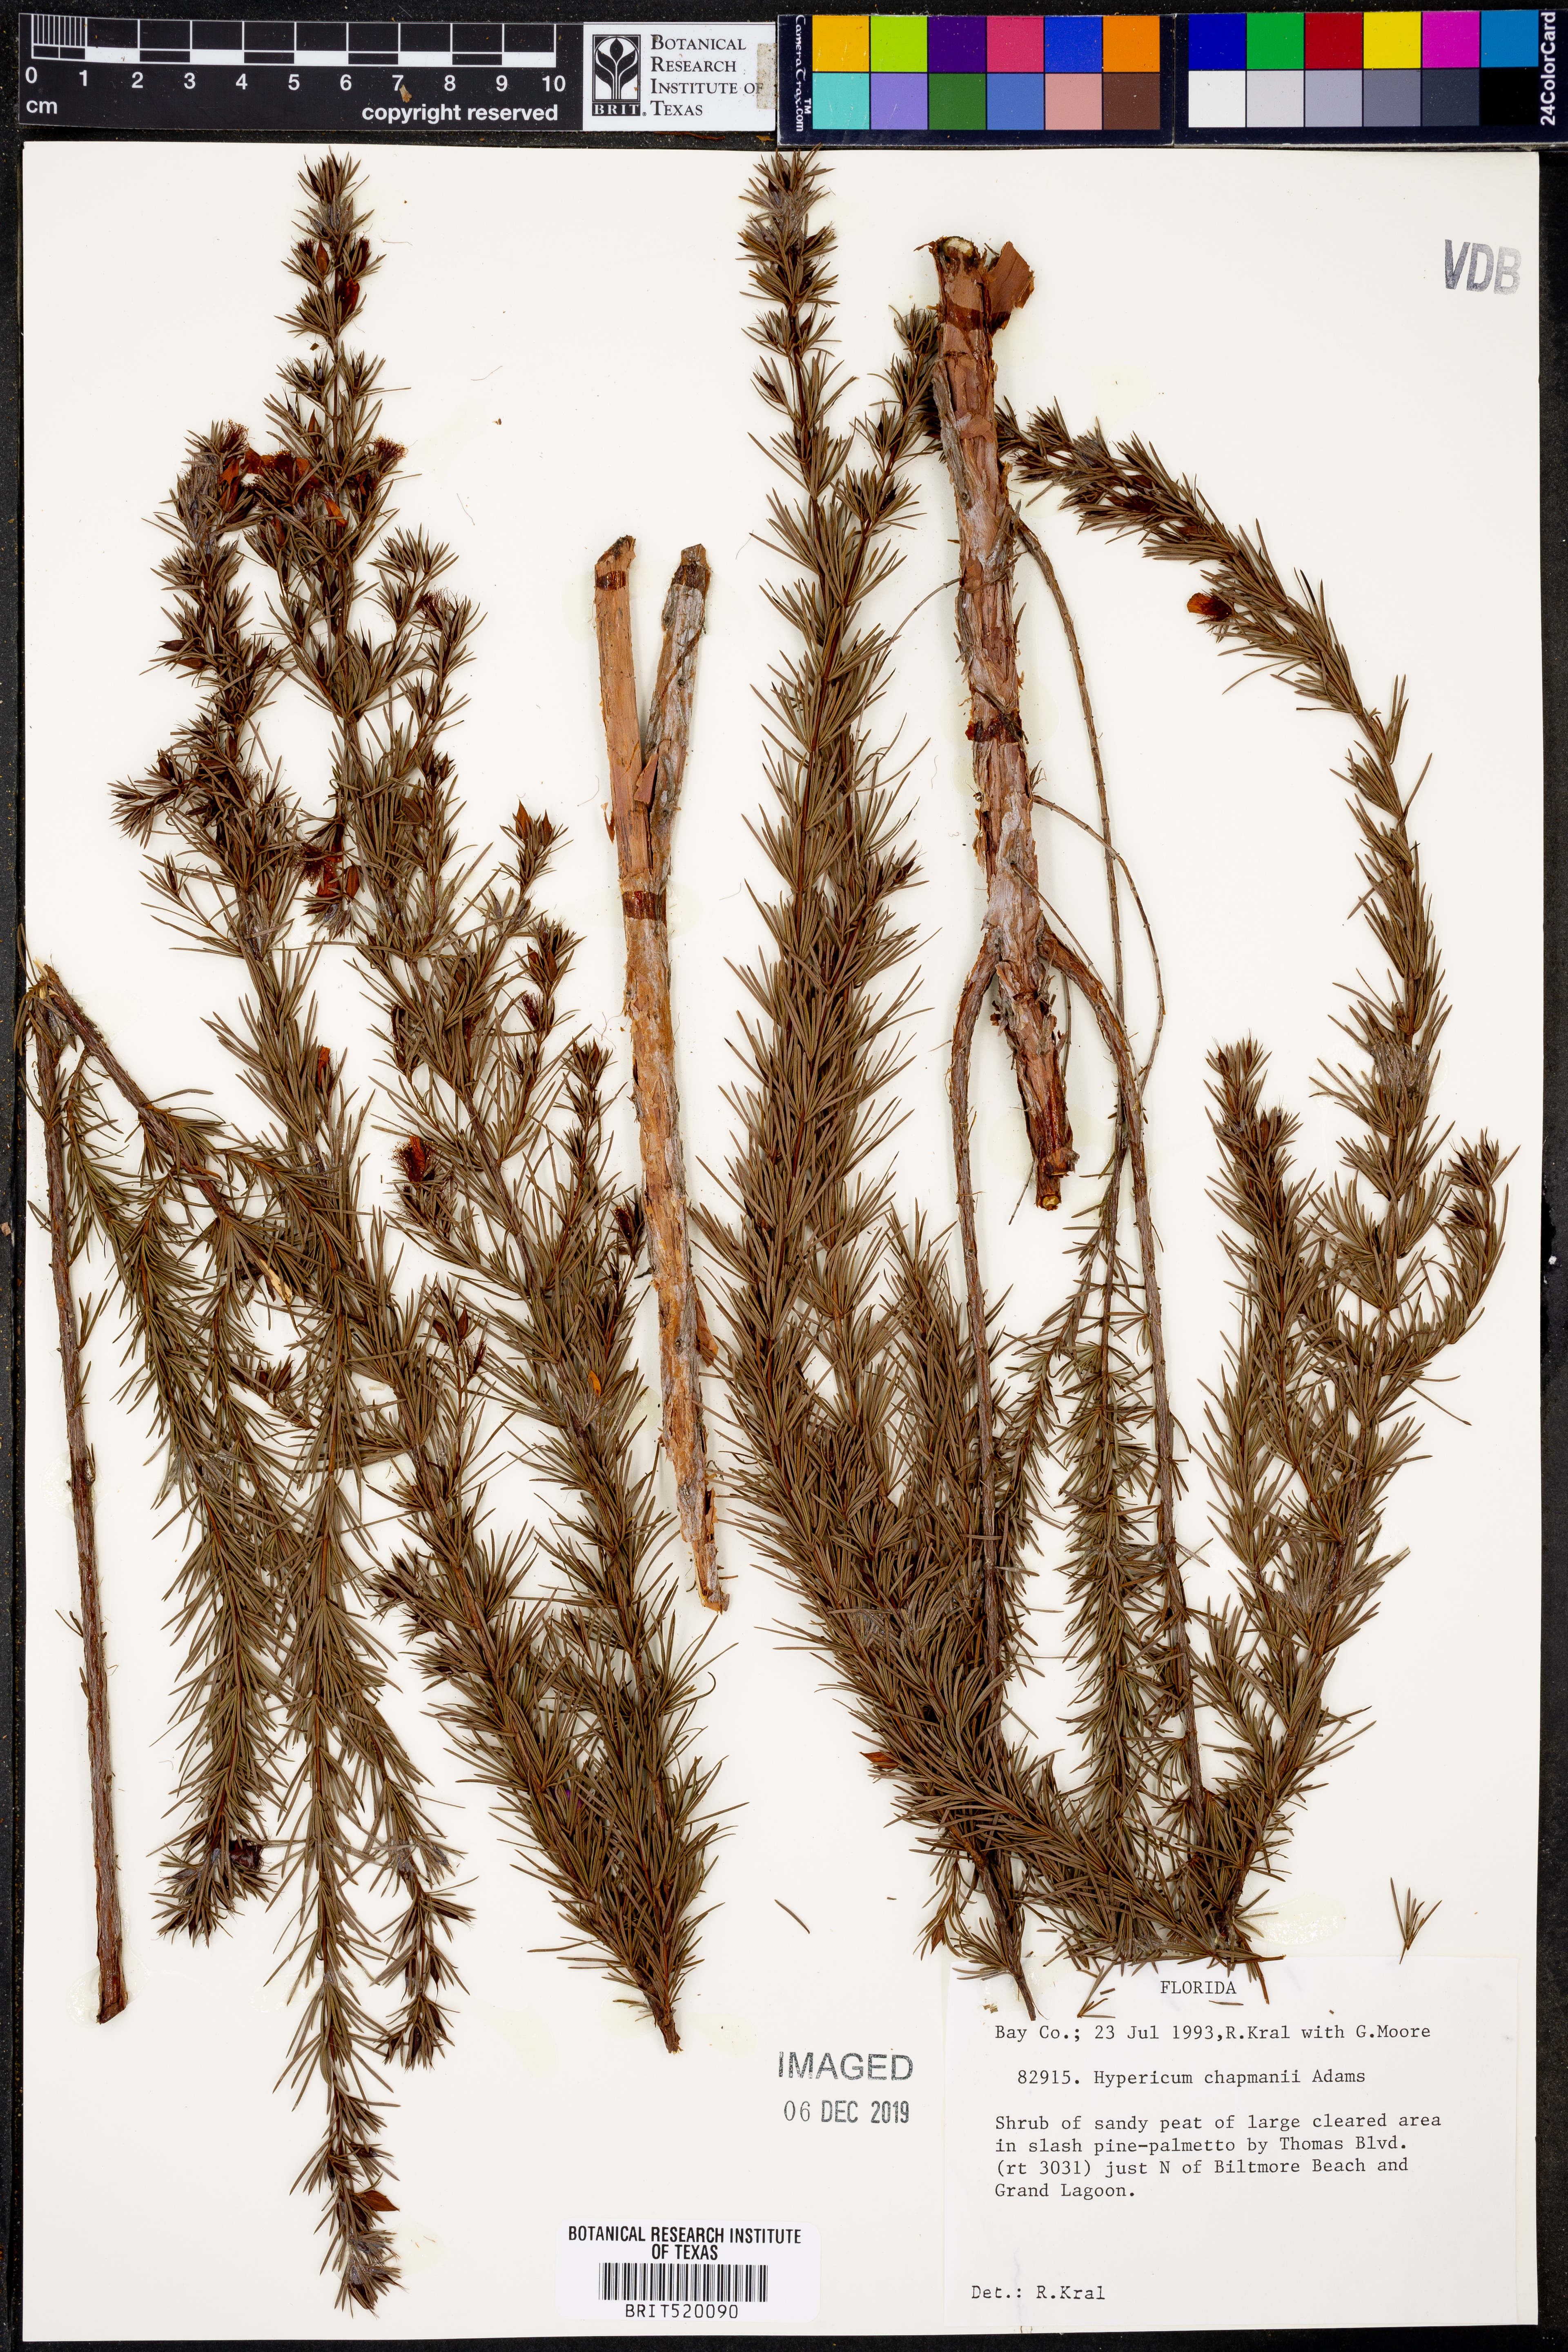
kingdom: Plantae
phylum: Tracheophyta
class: Magnoliopsida
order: Malpighiales
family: Hypericaceae
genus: Hypericum
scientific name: Hypericum chapmanii
